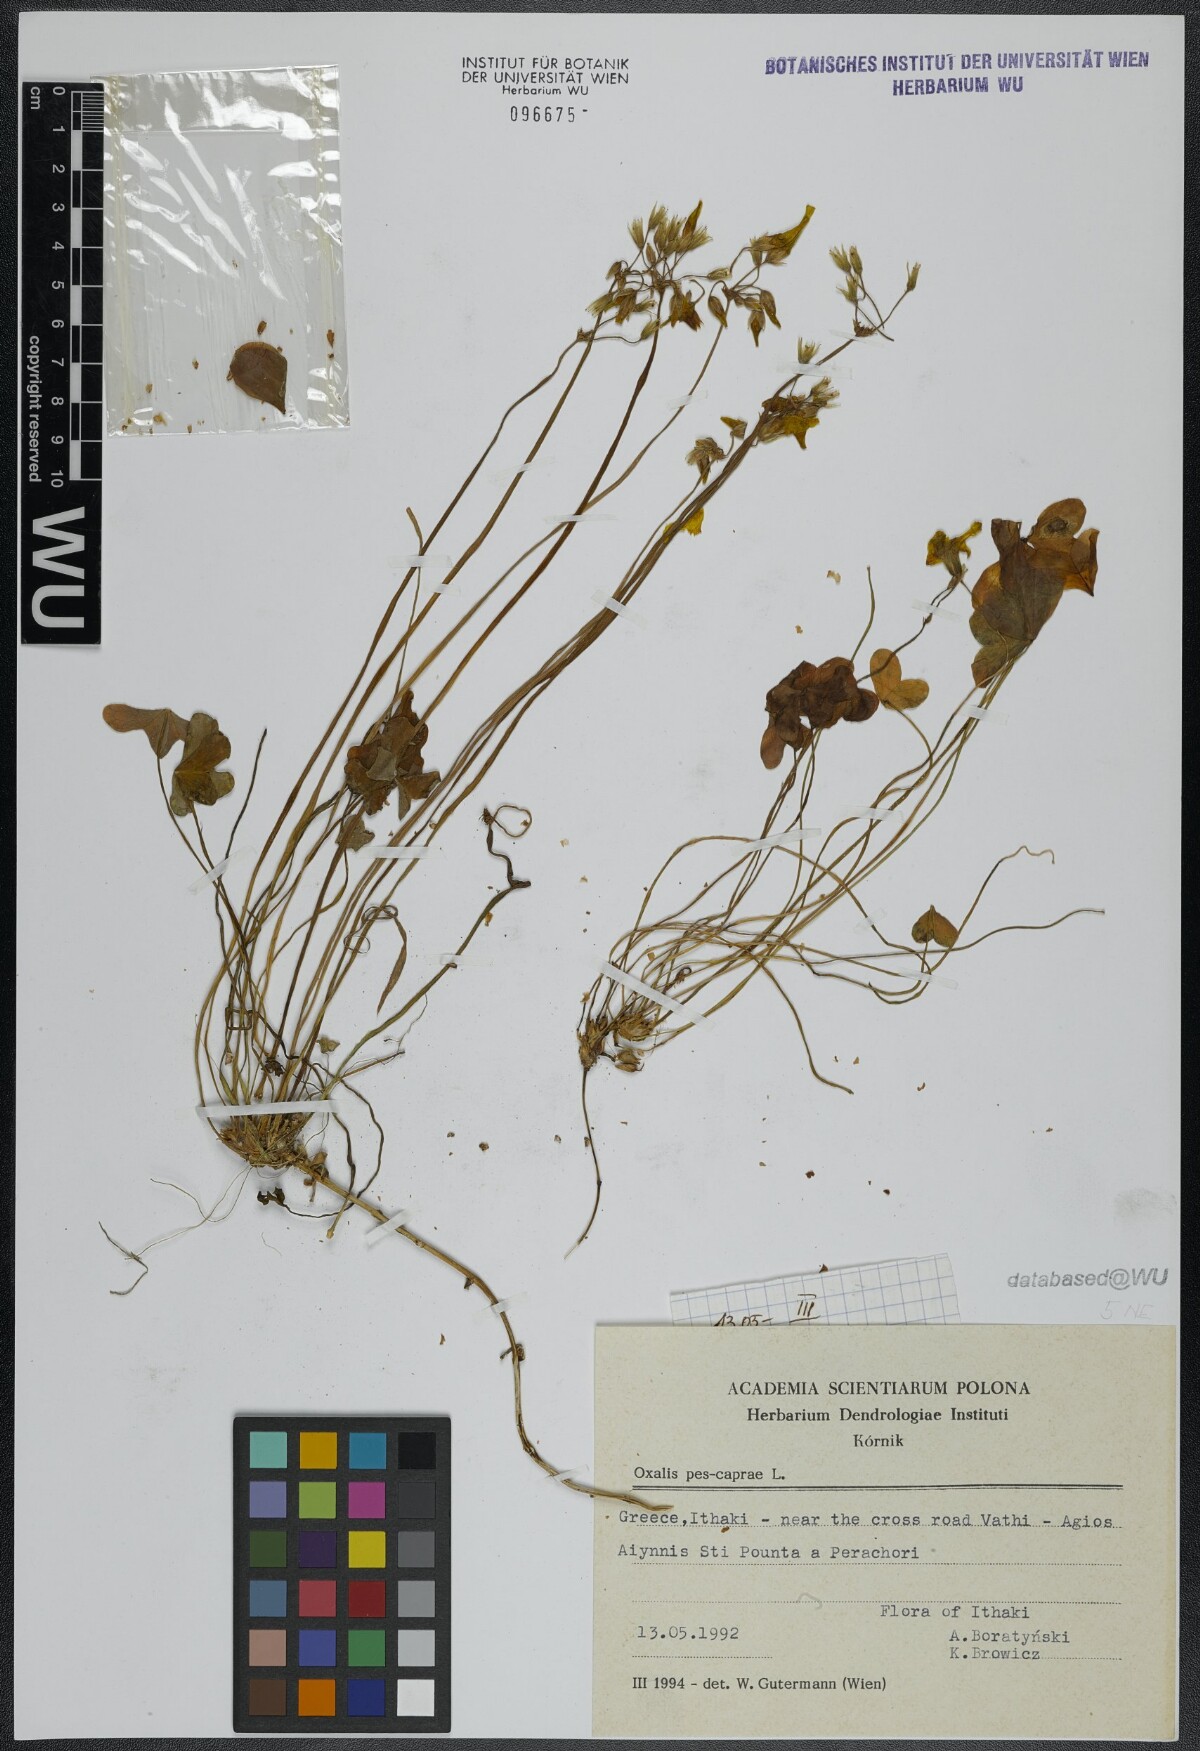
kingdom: Plantae
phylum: Tracheophyta
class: Magnoliopsida
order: Oxalidales
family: Oxalidaceae
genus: Oxalis
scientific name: Oxalis pes-caprae
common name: Bermuda-buttercup
